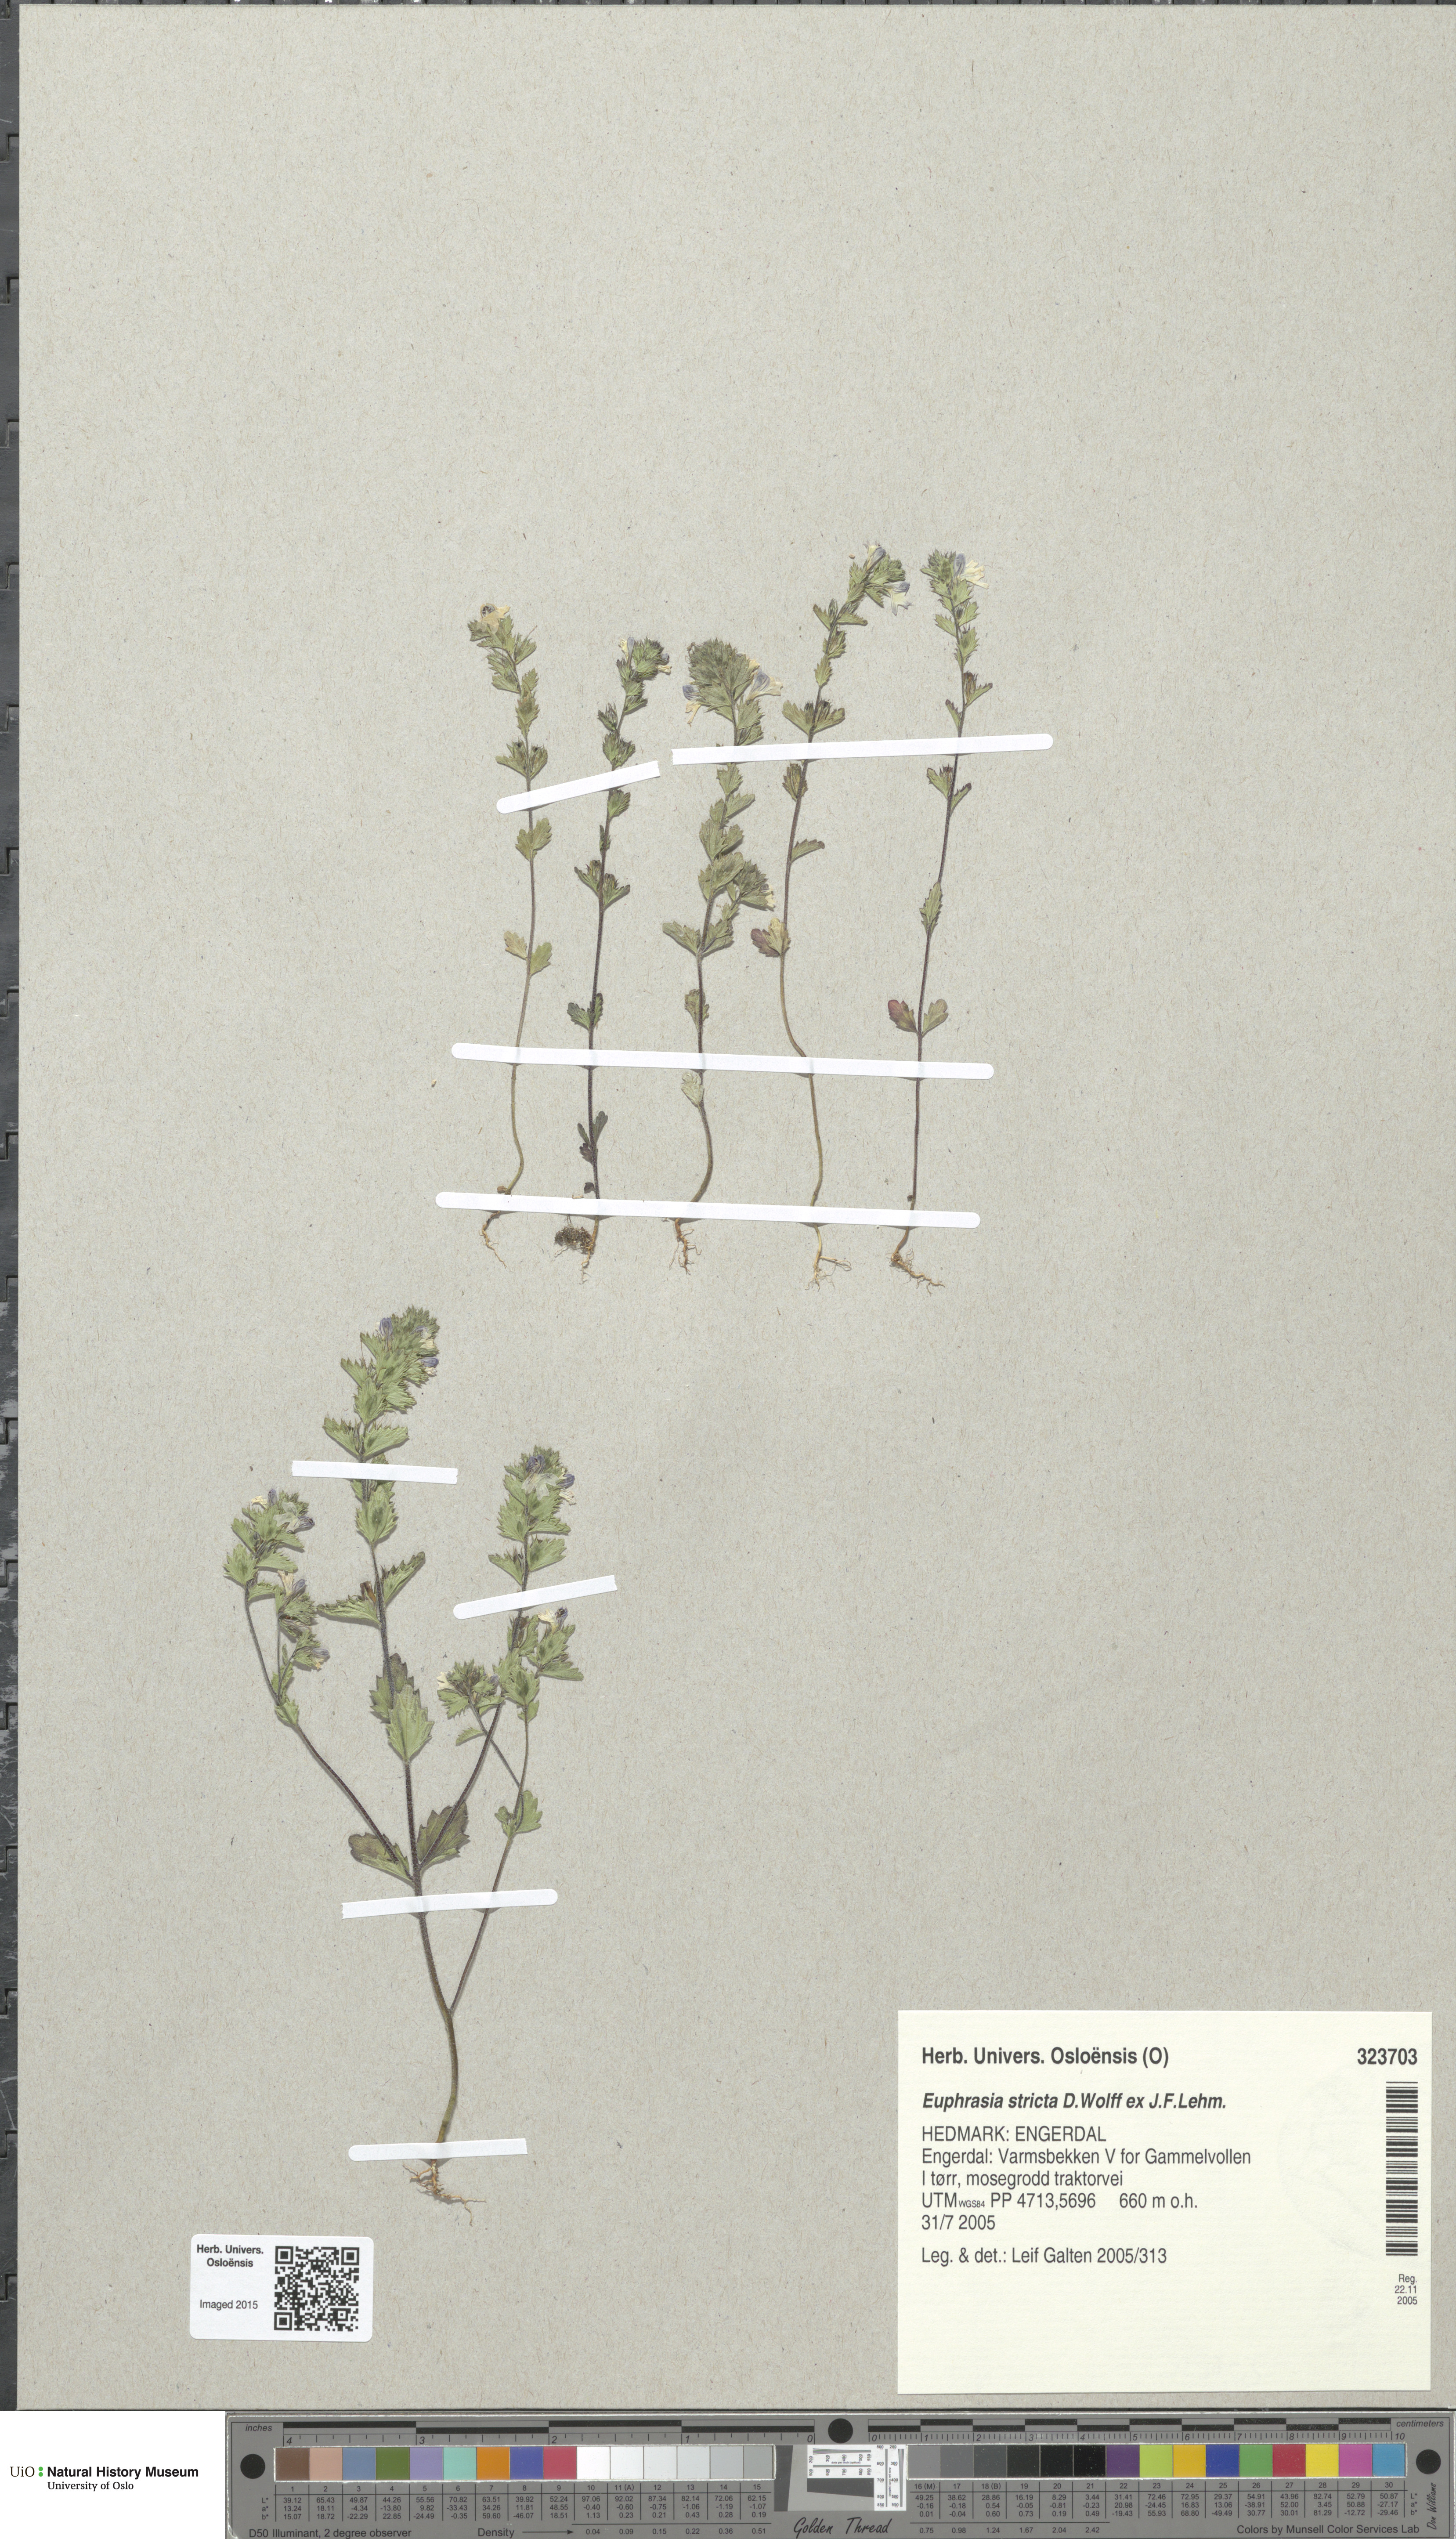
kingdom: Plantae
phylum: Tracheophyta
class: Magnoliopsida
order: Lamiales
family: Orobanchaceae
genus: Euphrasia
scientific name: Euphrasia stricta
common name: Drug eyebright
